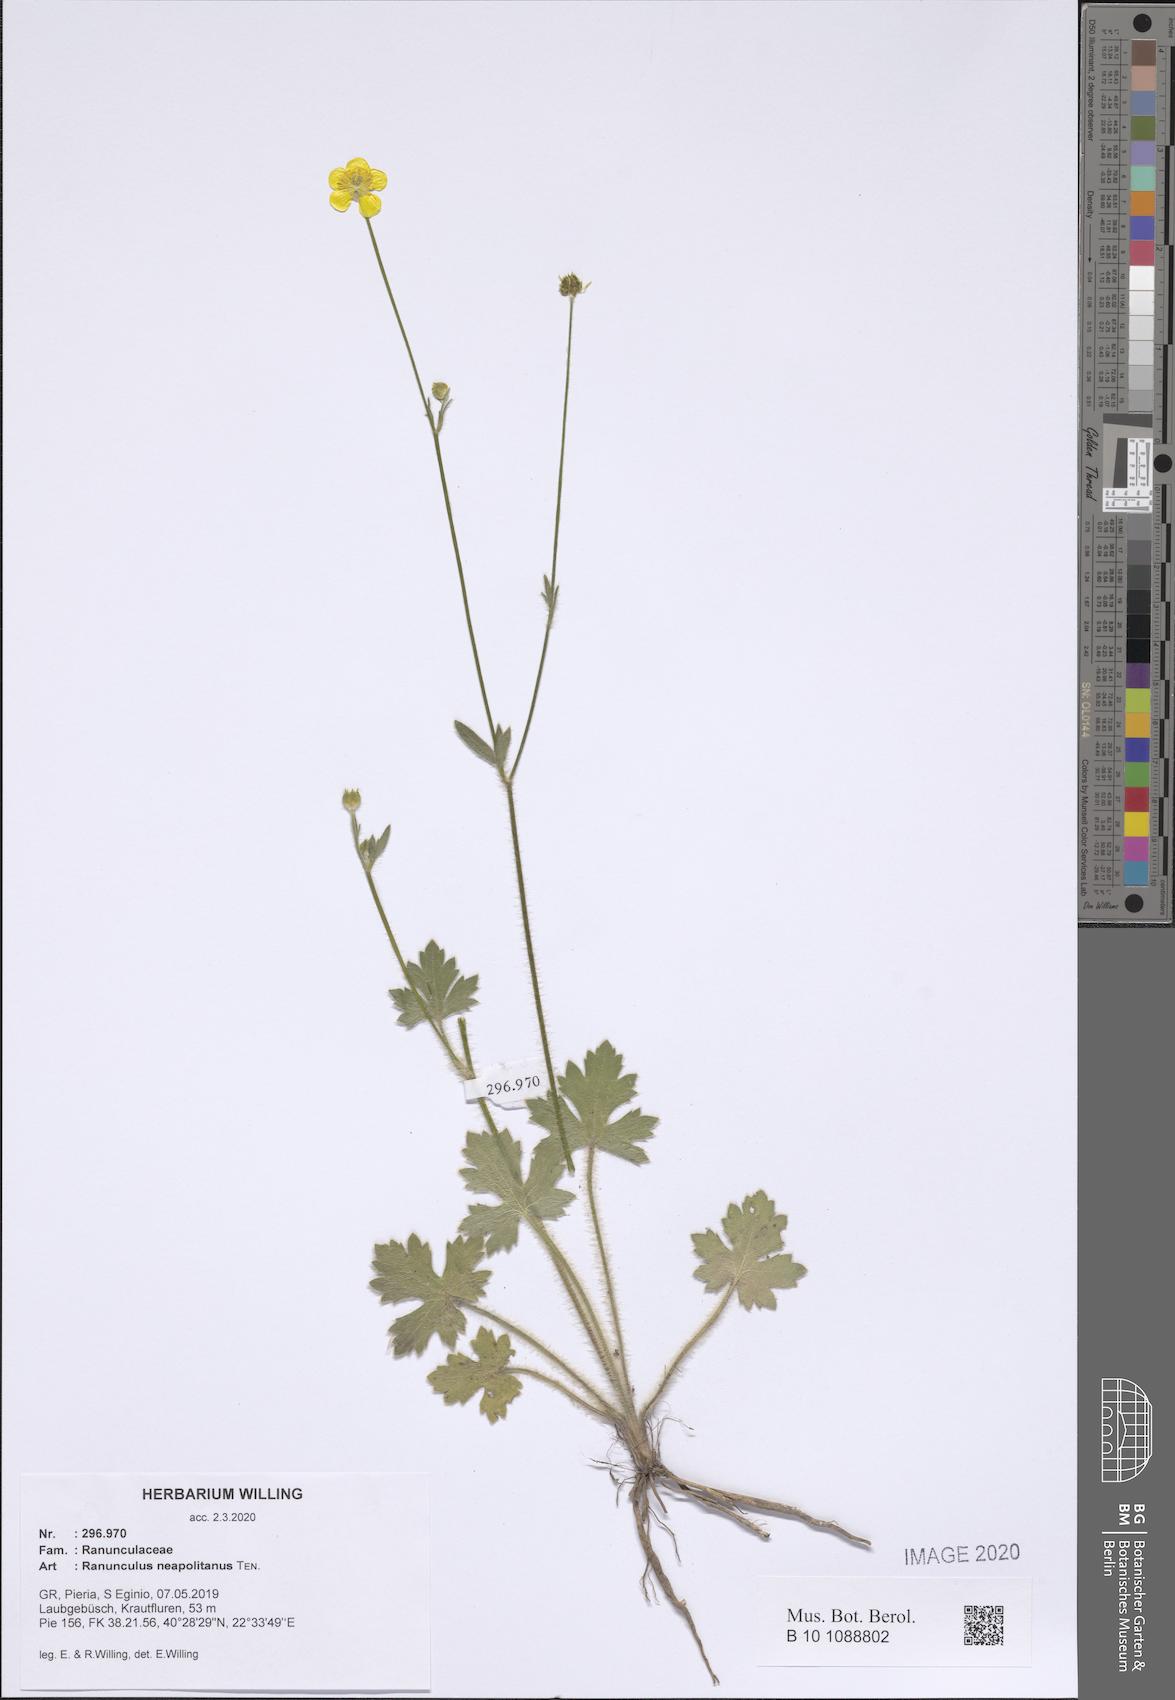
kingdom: Plantae
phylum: Tracheophyta
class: Magnoliopsida
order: Ranunculales
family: Ranunculaceae
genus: Ranunculus
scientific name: Ranunculus neapolitanus
